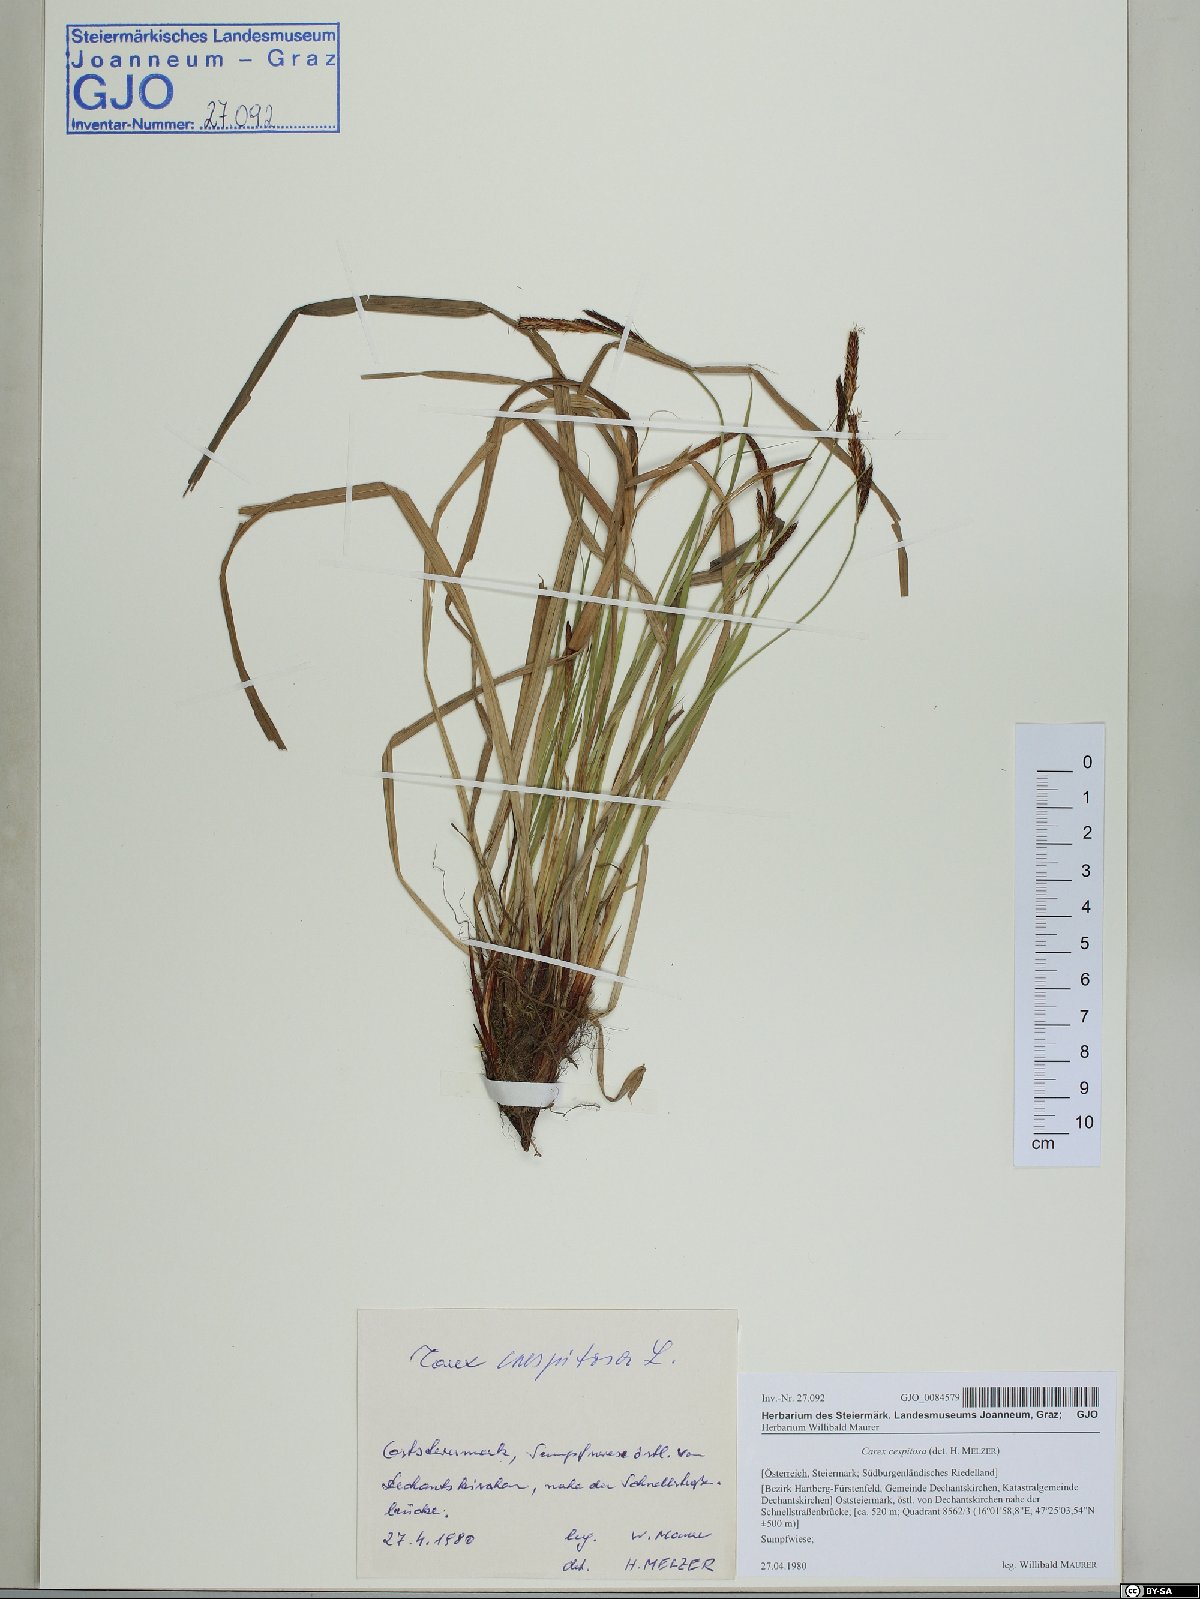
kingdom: Plantae
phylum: Tracheophyta
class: Liliopsida
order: Poales
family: Cyperaceae
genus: Carex
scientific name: Carex cespitosa
